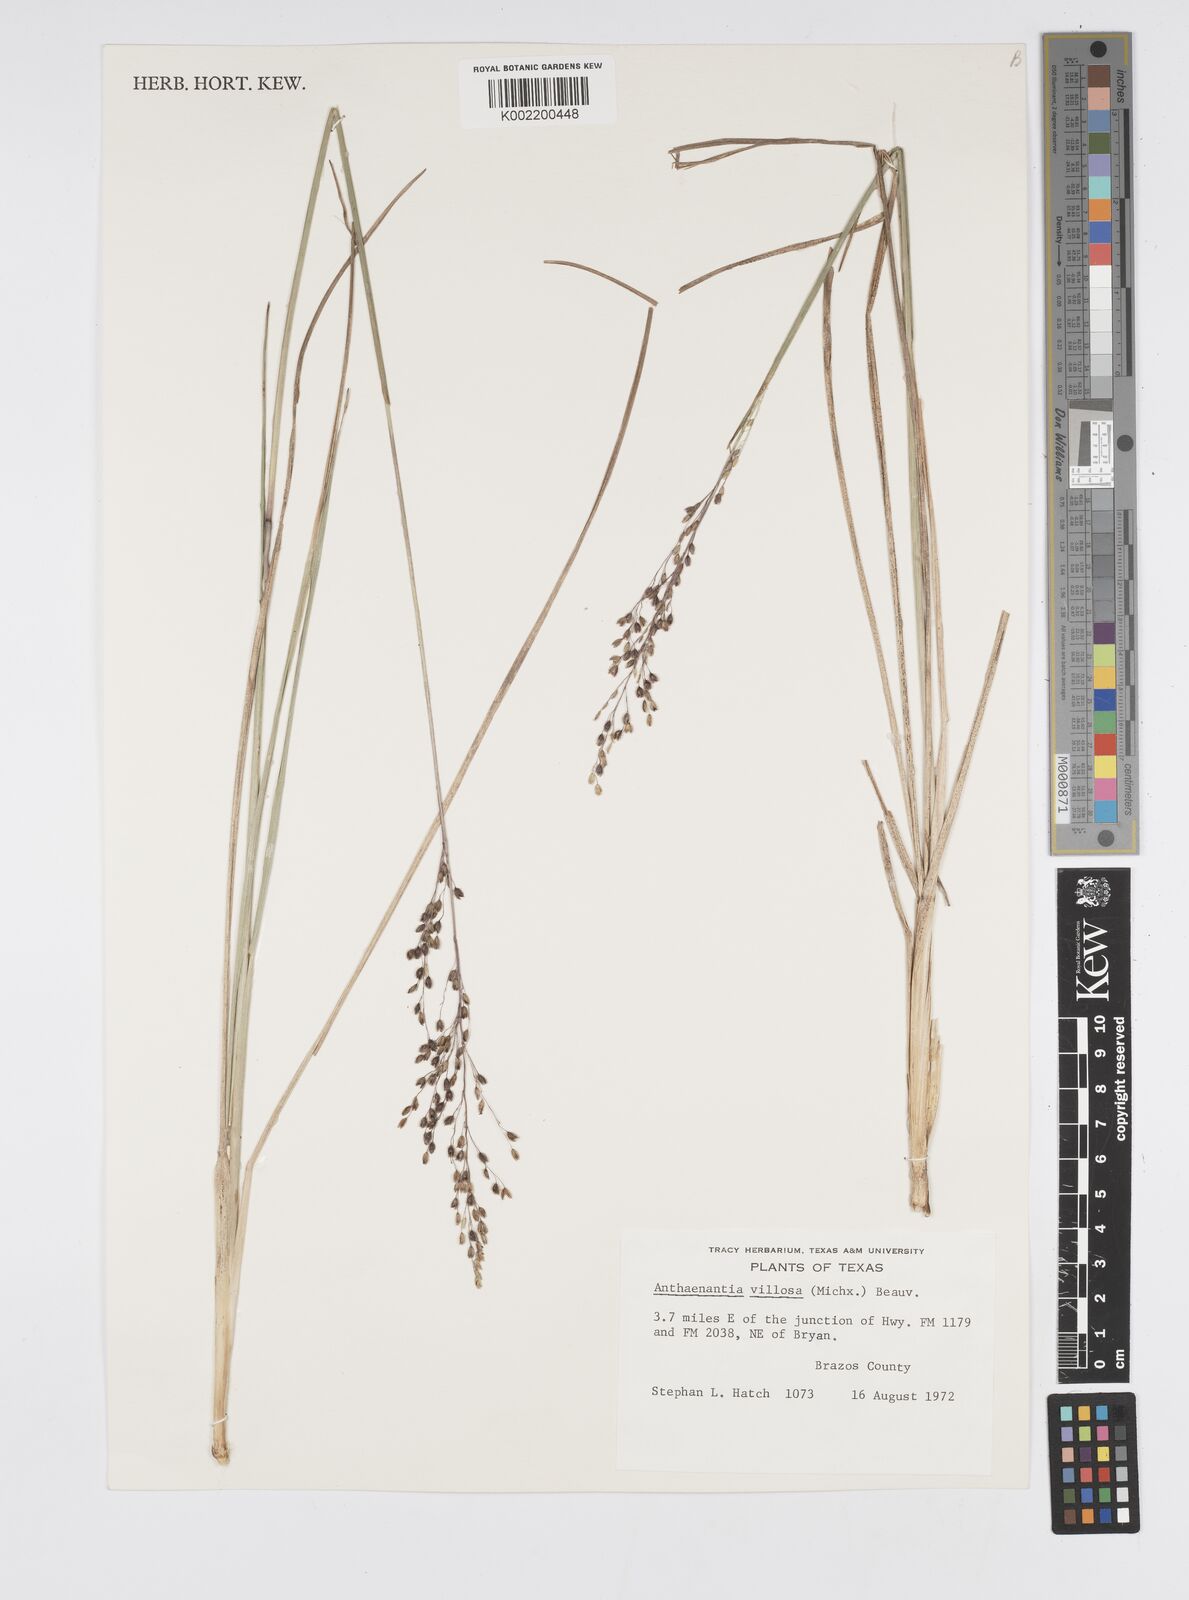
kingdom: Plantae
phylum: Tracheophyta
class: Liliopsida
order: Poales
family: Poaceae
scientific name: Poaceae
